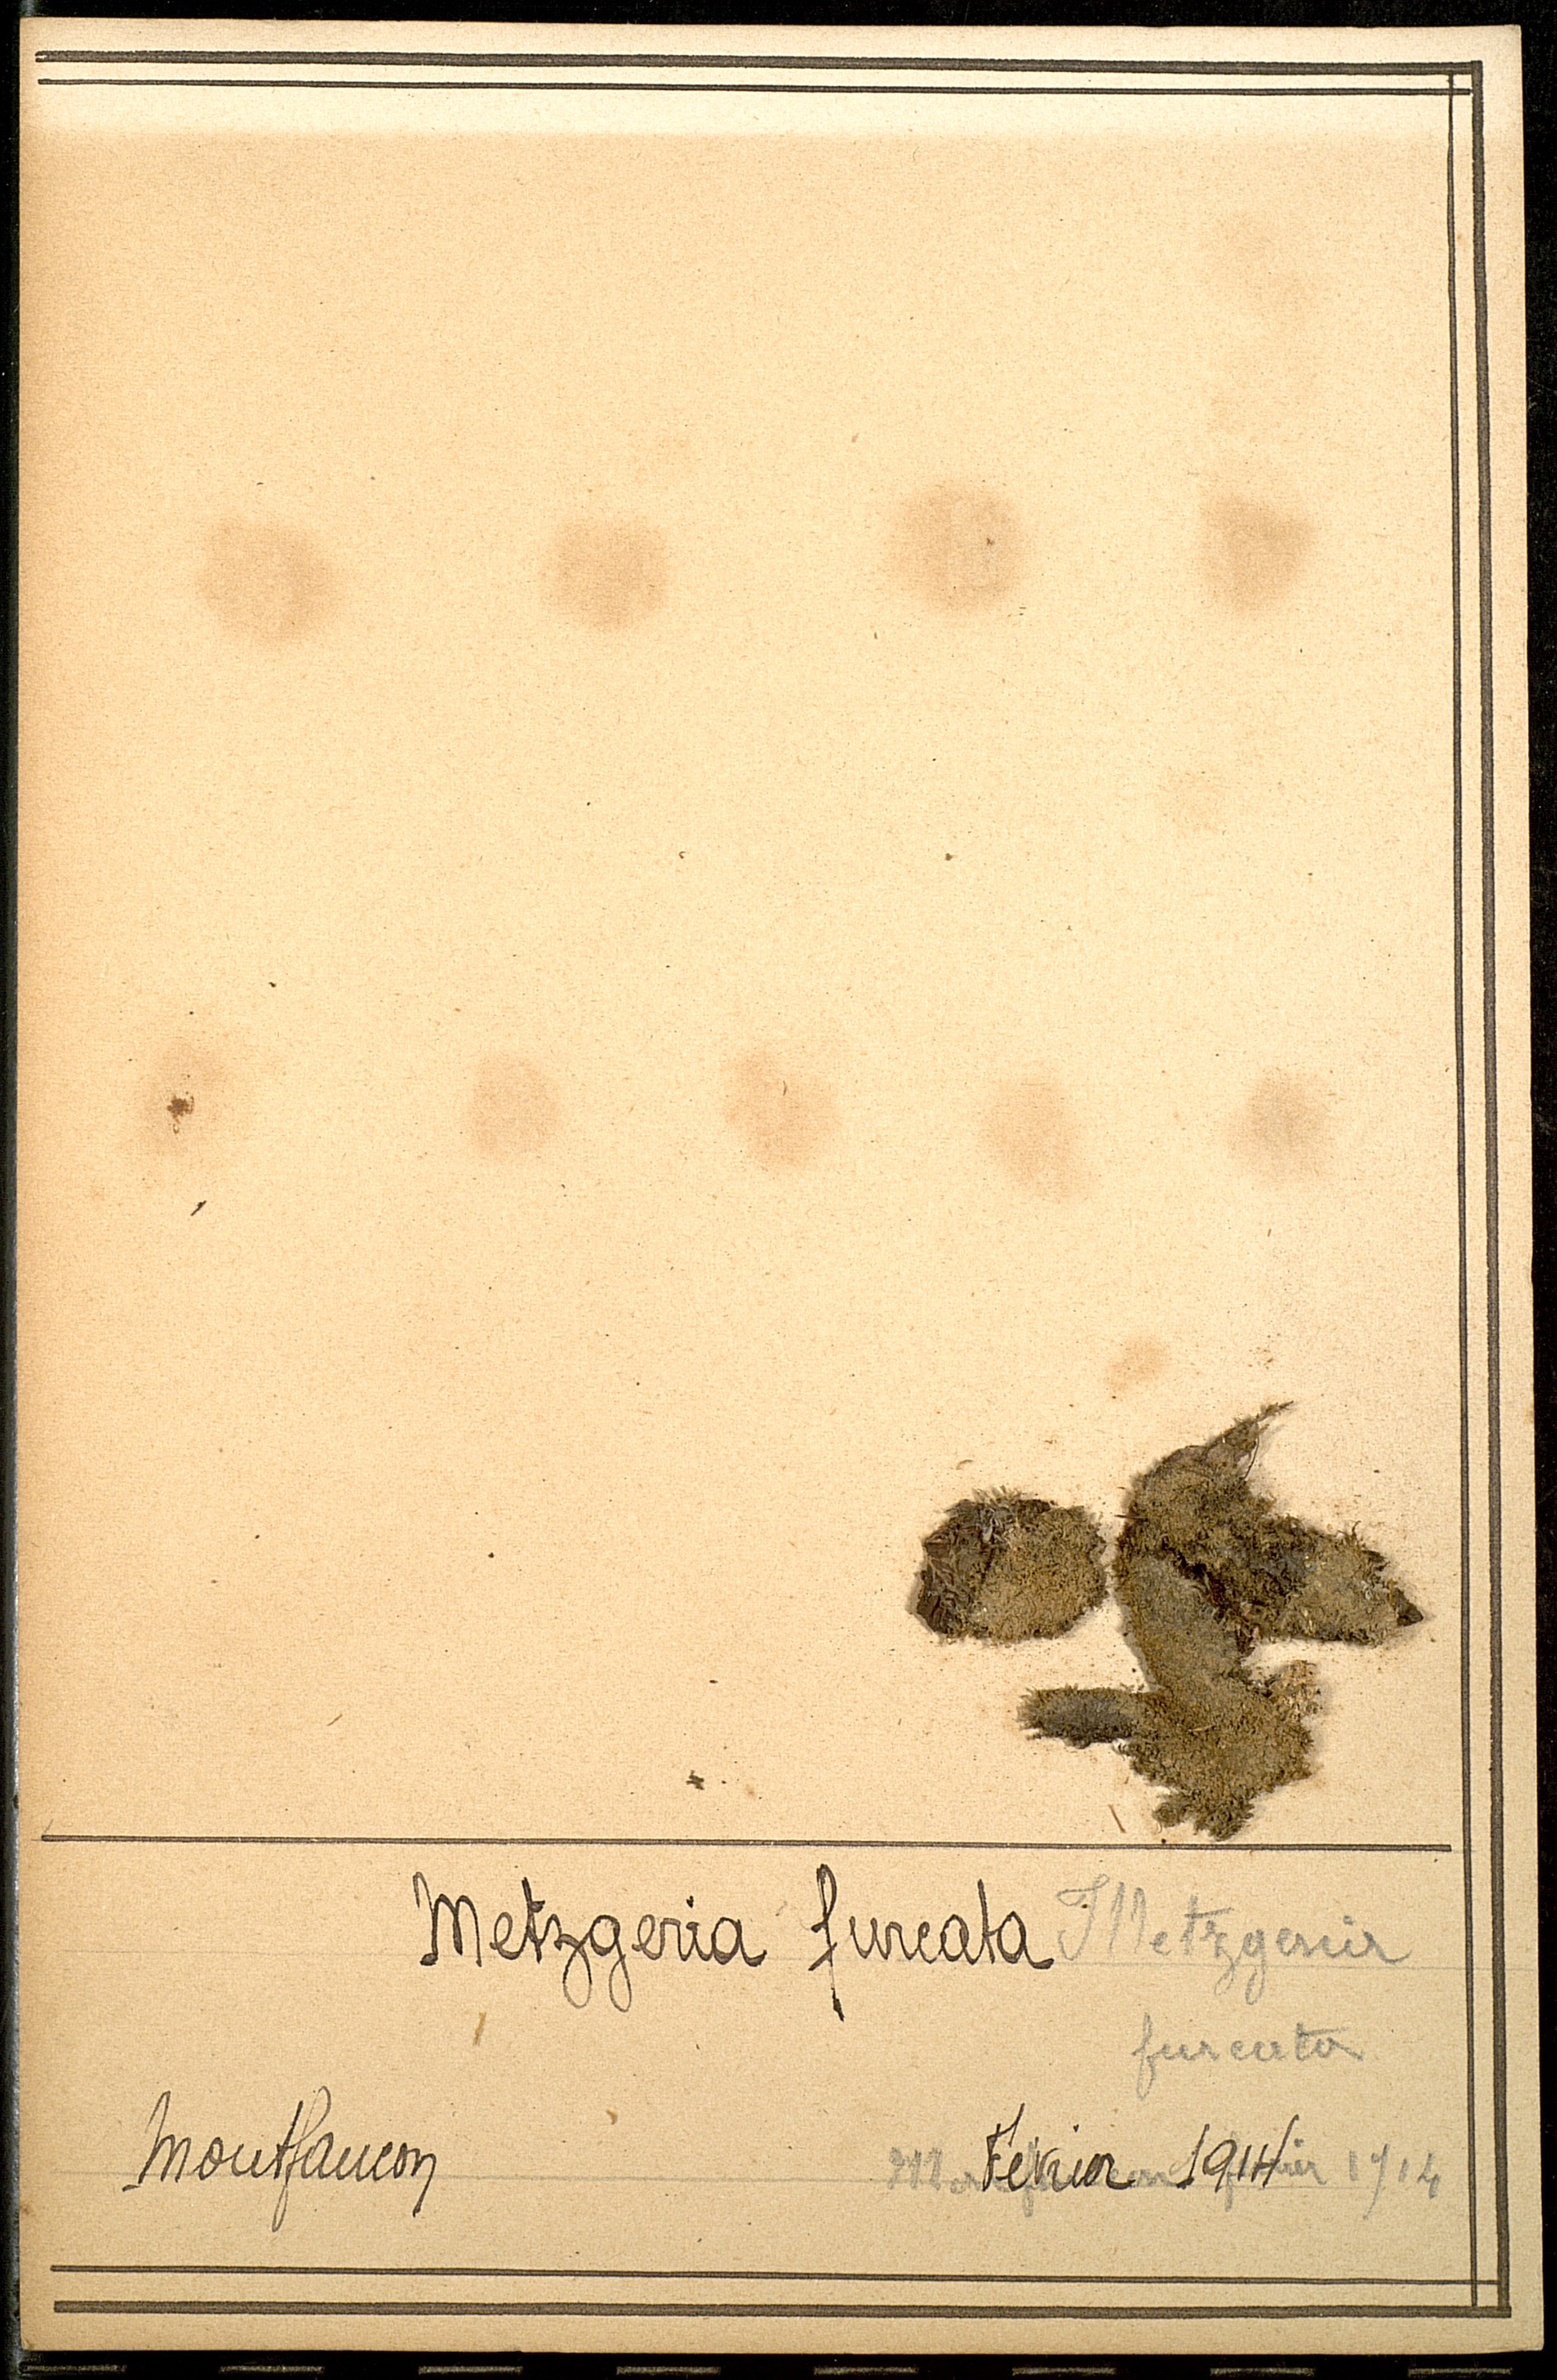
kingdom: Plantae
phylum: Marchantiophyta
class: Jungermanniopsida
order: Metzgeriales
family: Metzgeriaceae
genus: Metzgeria
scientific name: Metzgeria furcata
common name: Forked veilwort
